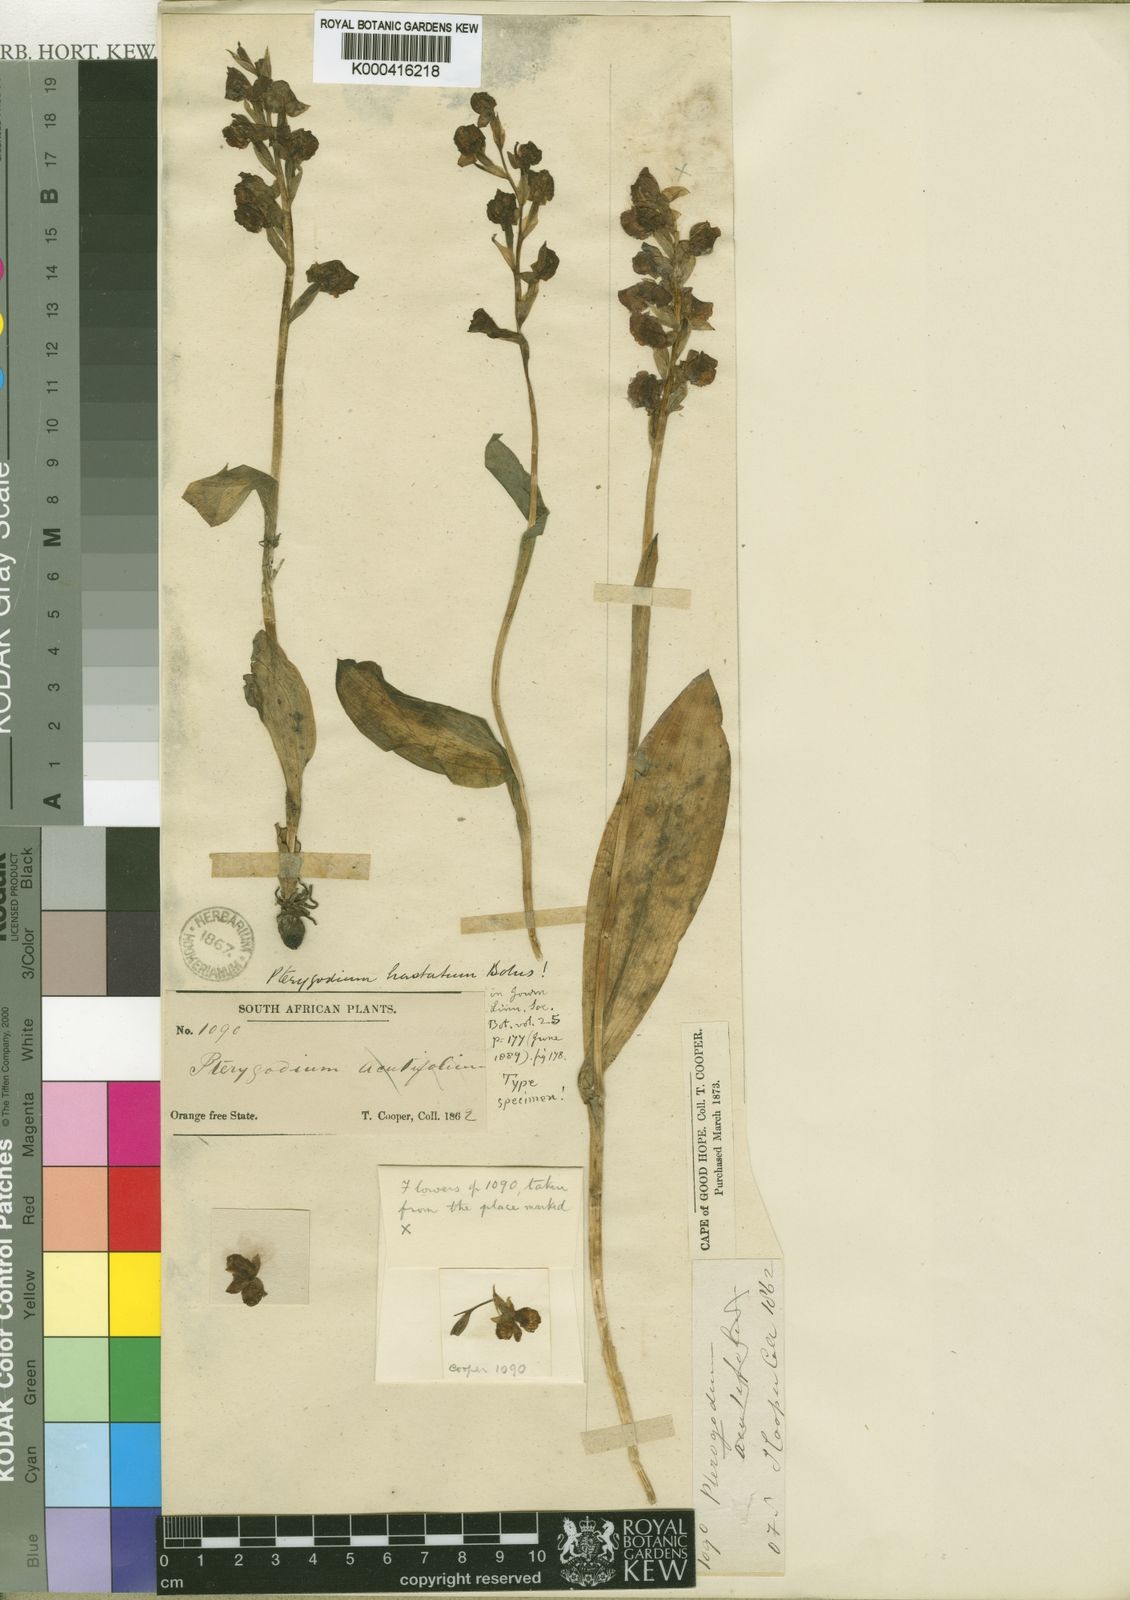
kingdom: Plantae
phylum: Tracheophyta
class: Liliopsida
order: Asparagales
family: Orchidaceae
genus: Pterygodium
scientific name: Pterygodium hastatum
